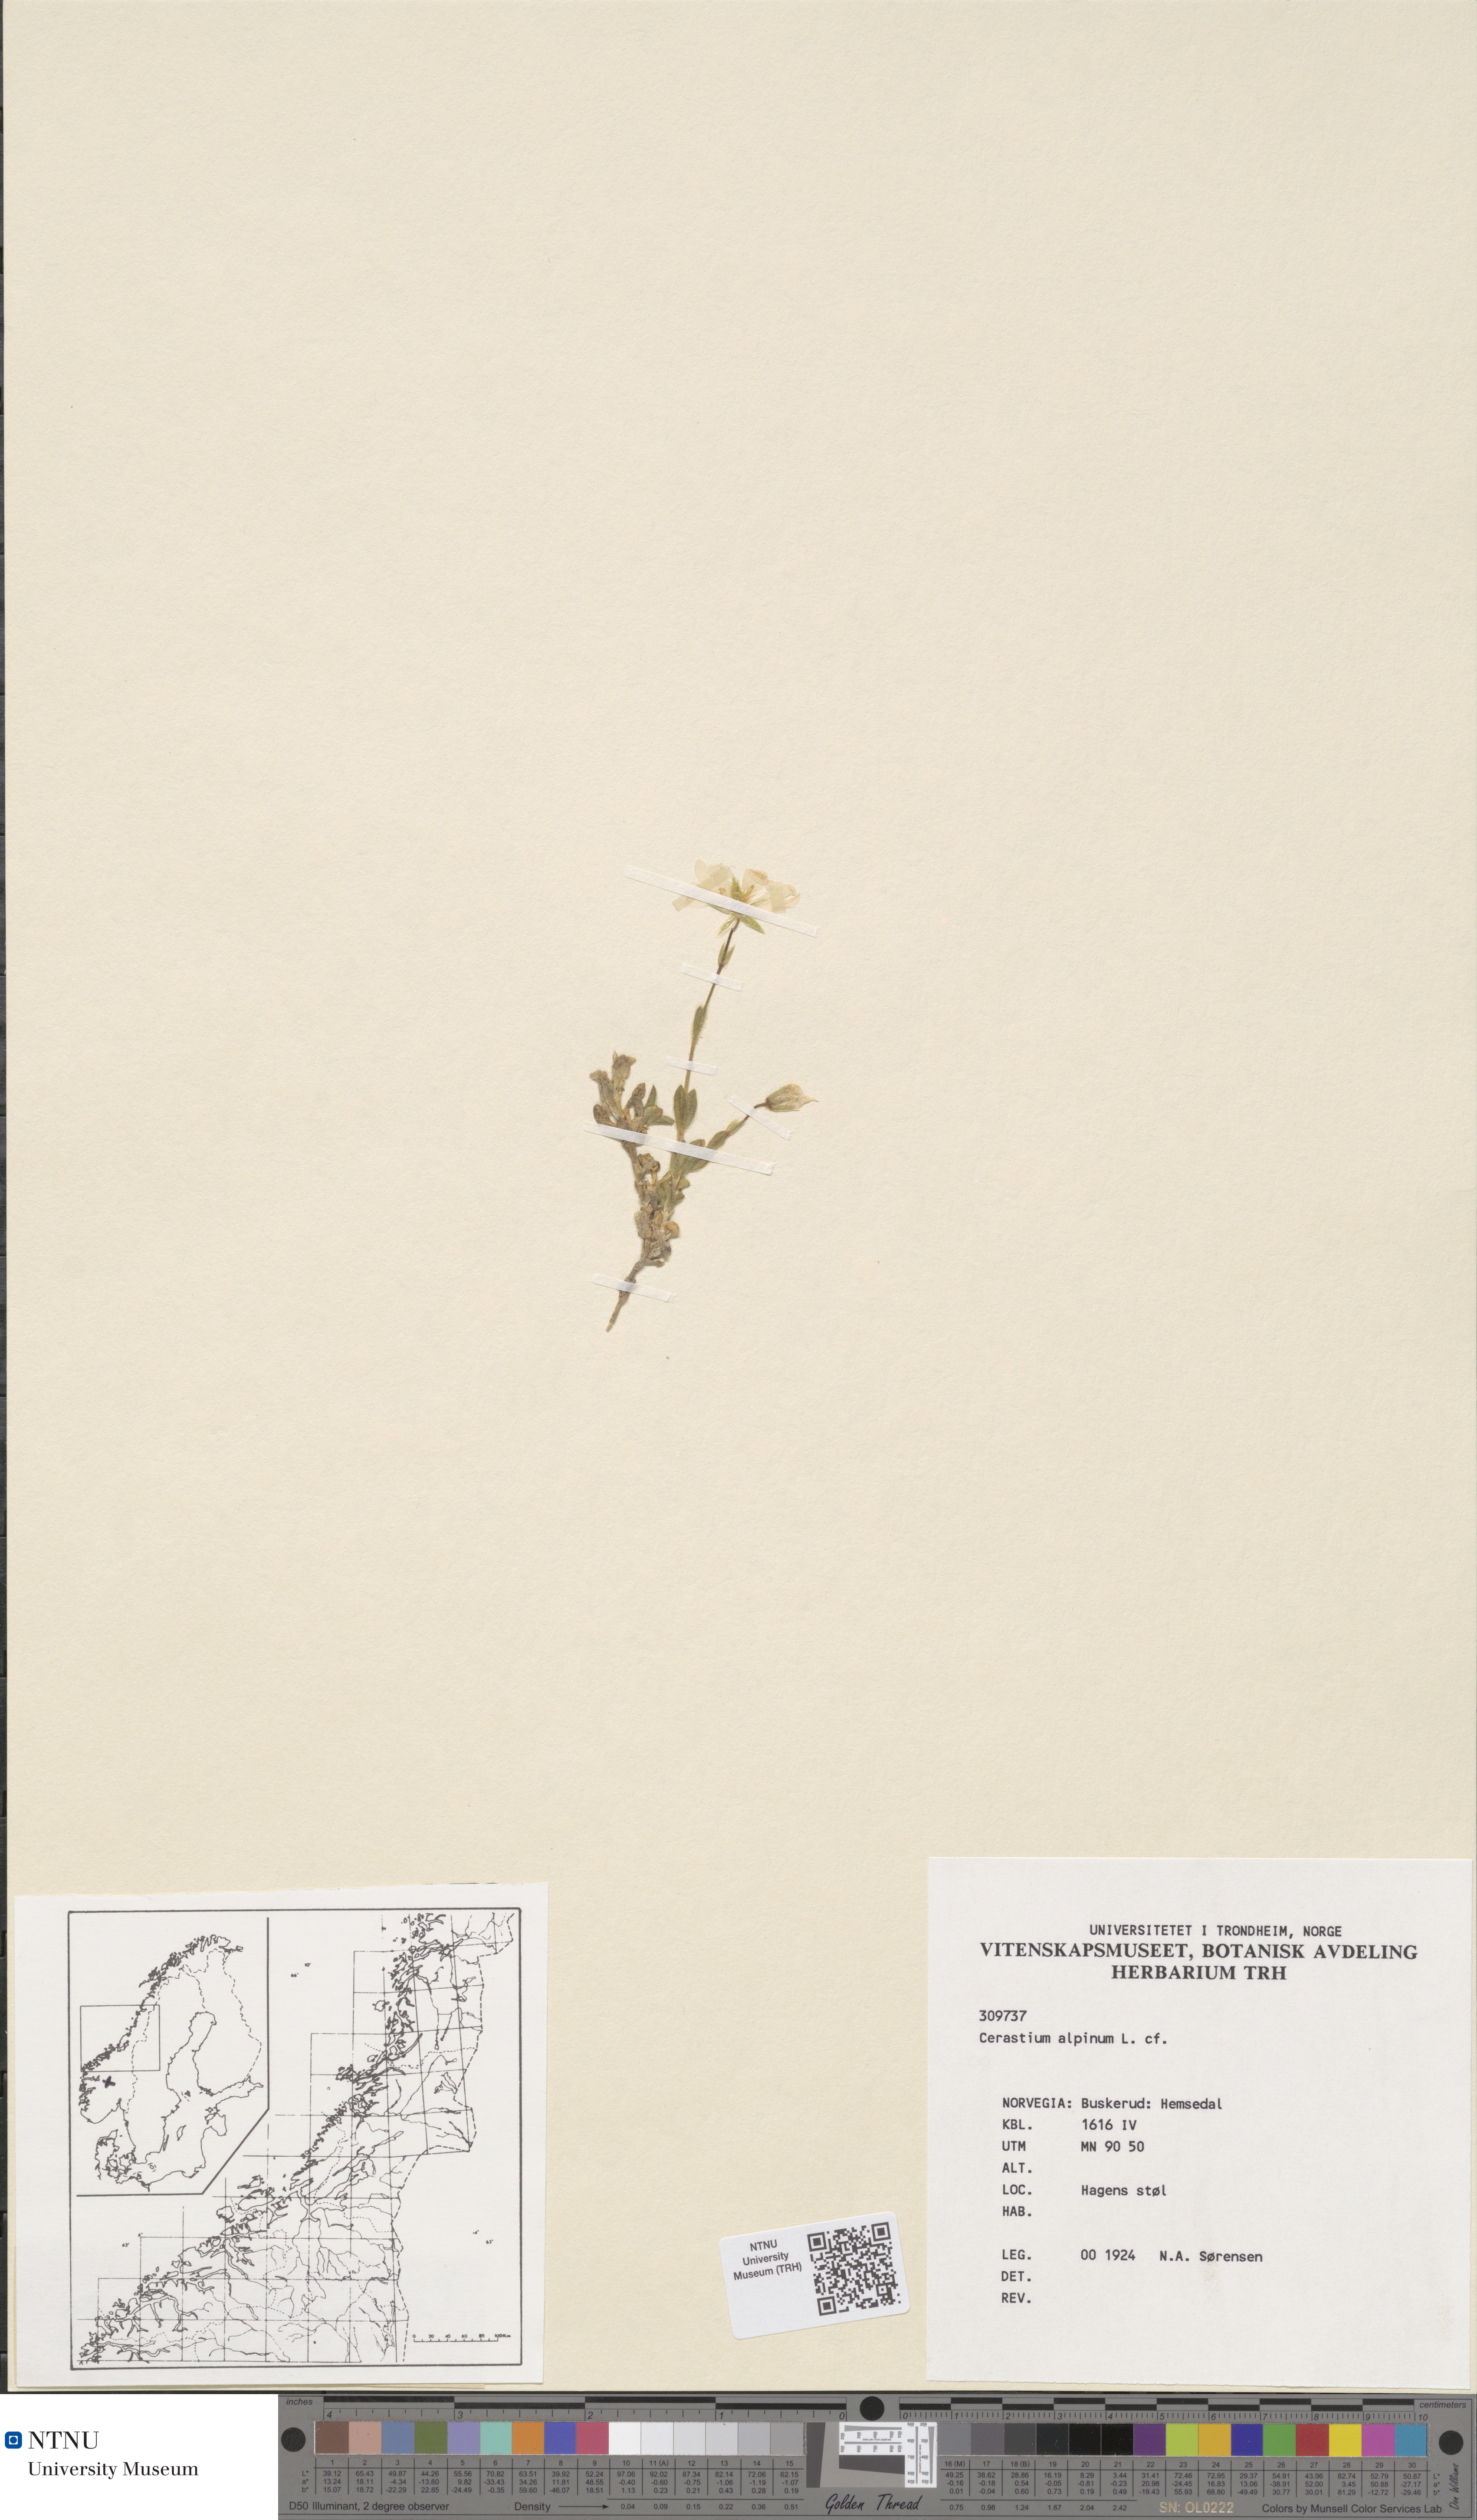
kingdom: Plantae
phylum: Tracheophyta
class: Magnoliopsida
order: Caryophyllales
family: Caryophyllaceae
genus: Cerastium
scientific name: Cerastium alpinum
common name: Alpine mouse-ear
